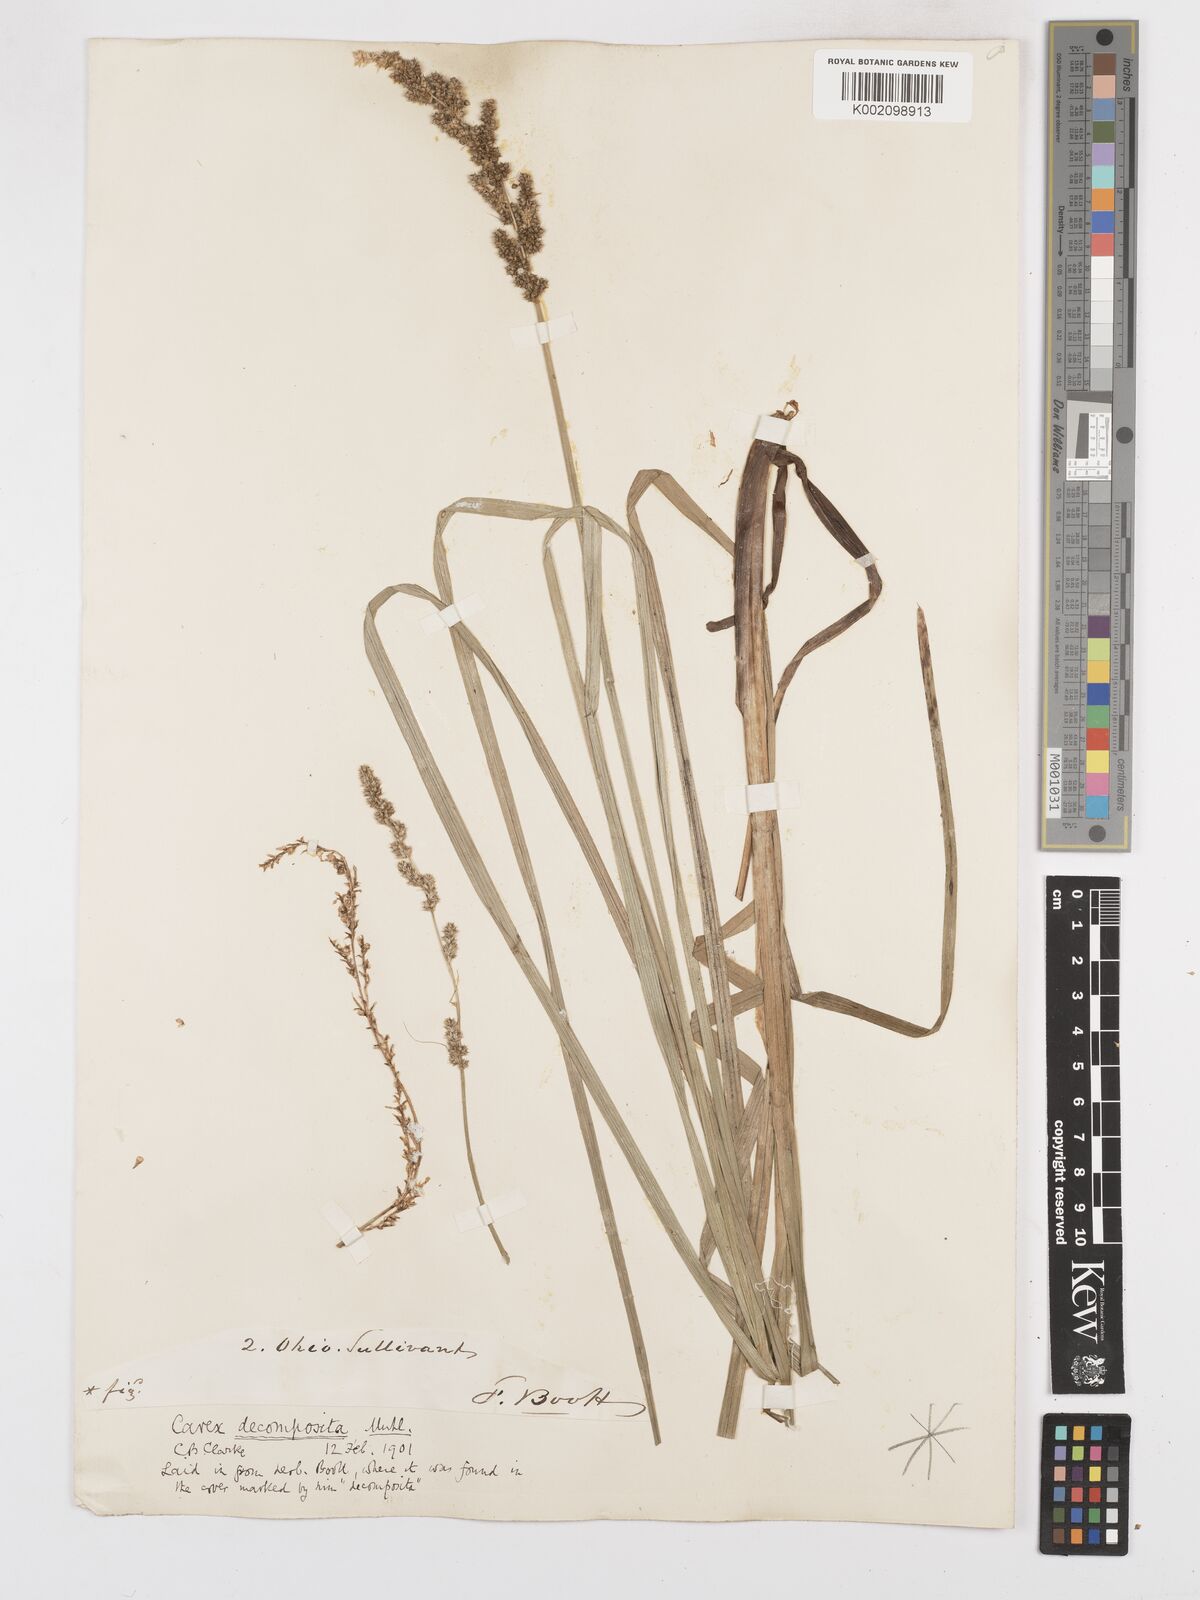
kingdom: Plantae
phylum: Tracheophyta
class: Liliopsida
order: Poales
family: Cyperaceae
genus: Carex
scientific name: Carex decomposita
